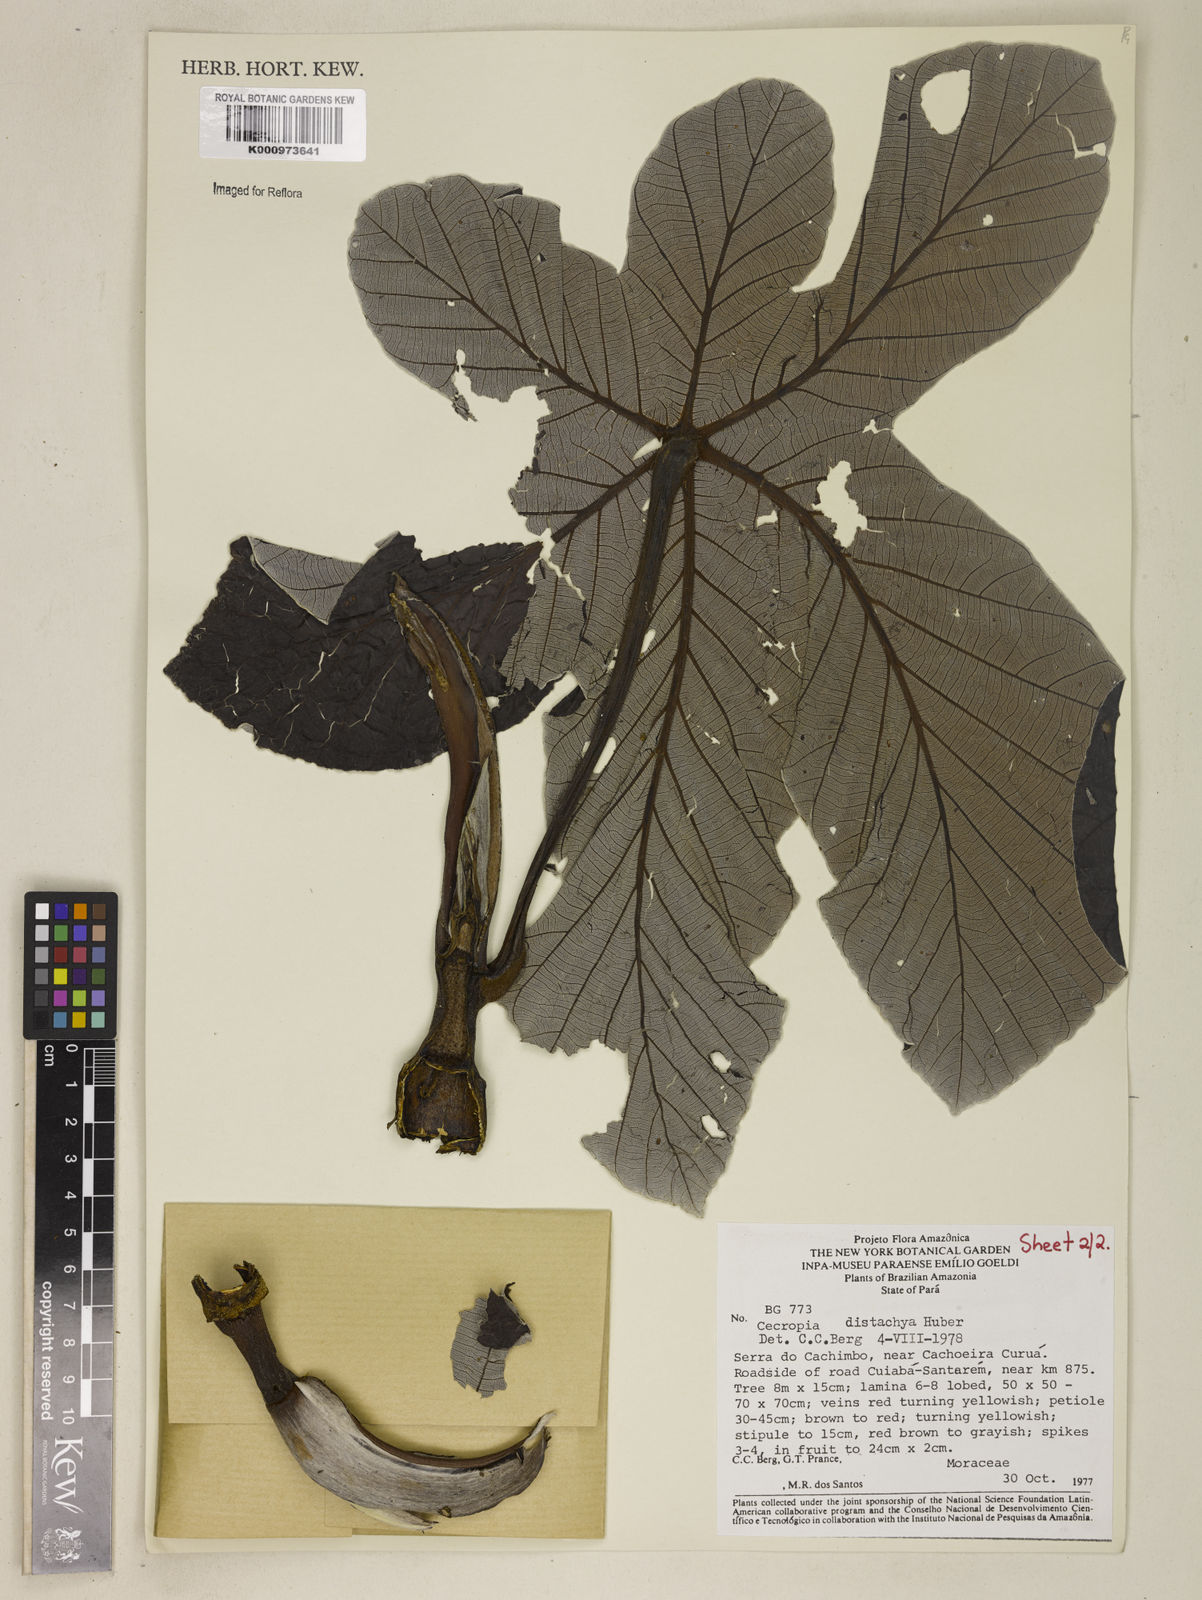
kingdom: Plantae
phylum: Tracheophyta
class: Magnoliopsida
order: Rosales
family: Urticaceae
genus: Cecropia
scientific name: Cecropia distachya
